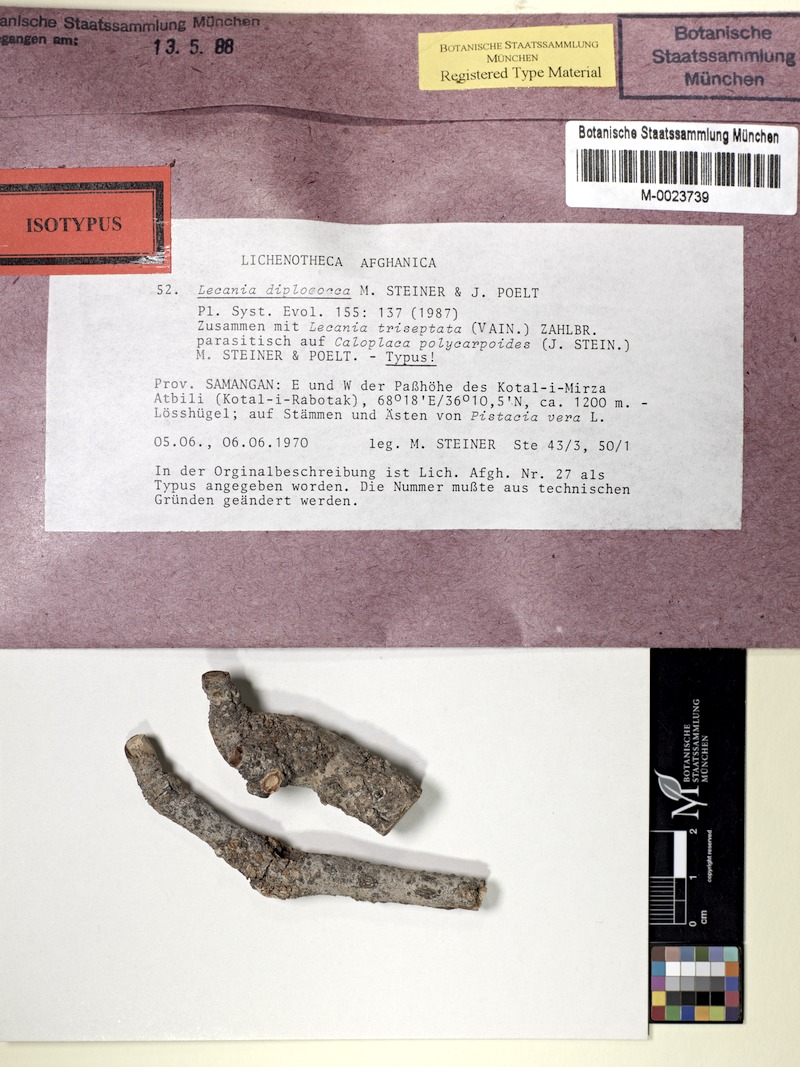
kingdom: Fungi
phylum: Ascomycota
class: Lecanoromycetes
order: Lecanorales
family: Ramalinaceae
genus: Lecania
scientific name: Lecania
